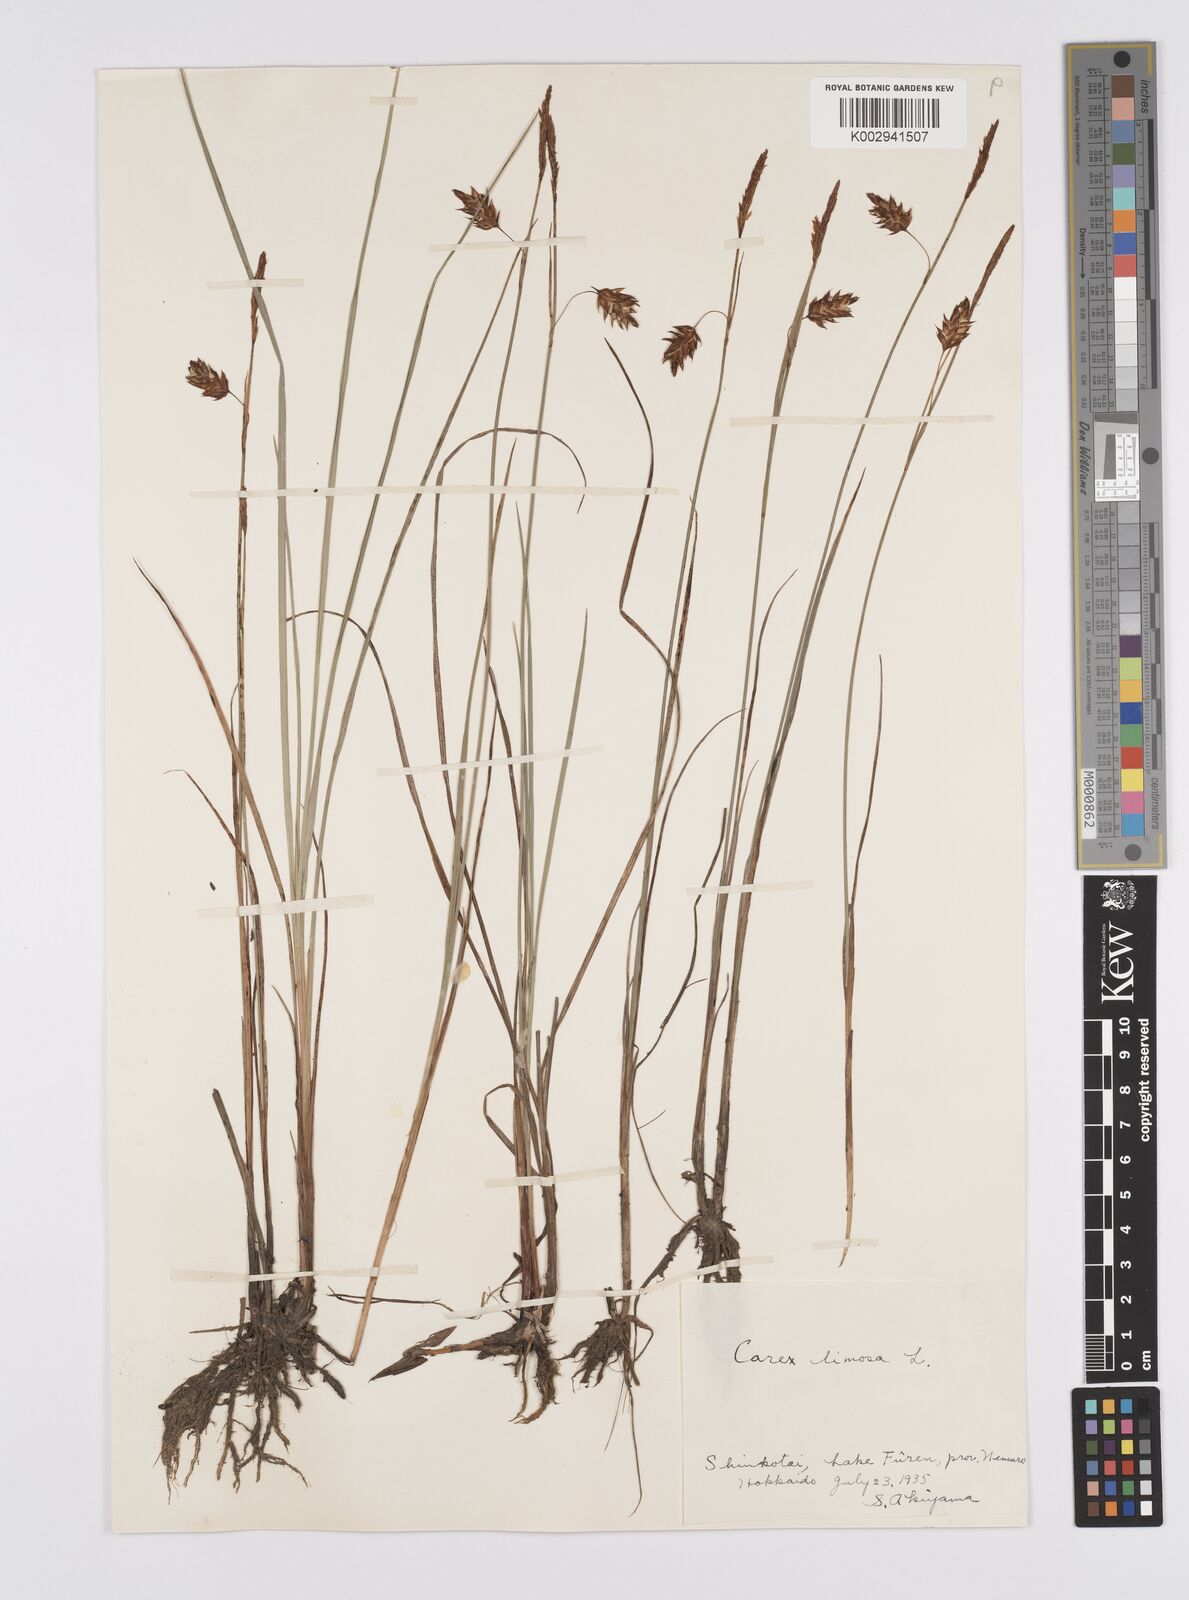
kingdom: Plantae
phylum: Tracheophyta
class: Liliopsida
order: Poales
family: Cyperaceae
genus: Carex
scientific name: Carex limosa
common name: Bog sedge
